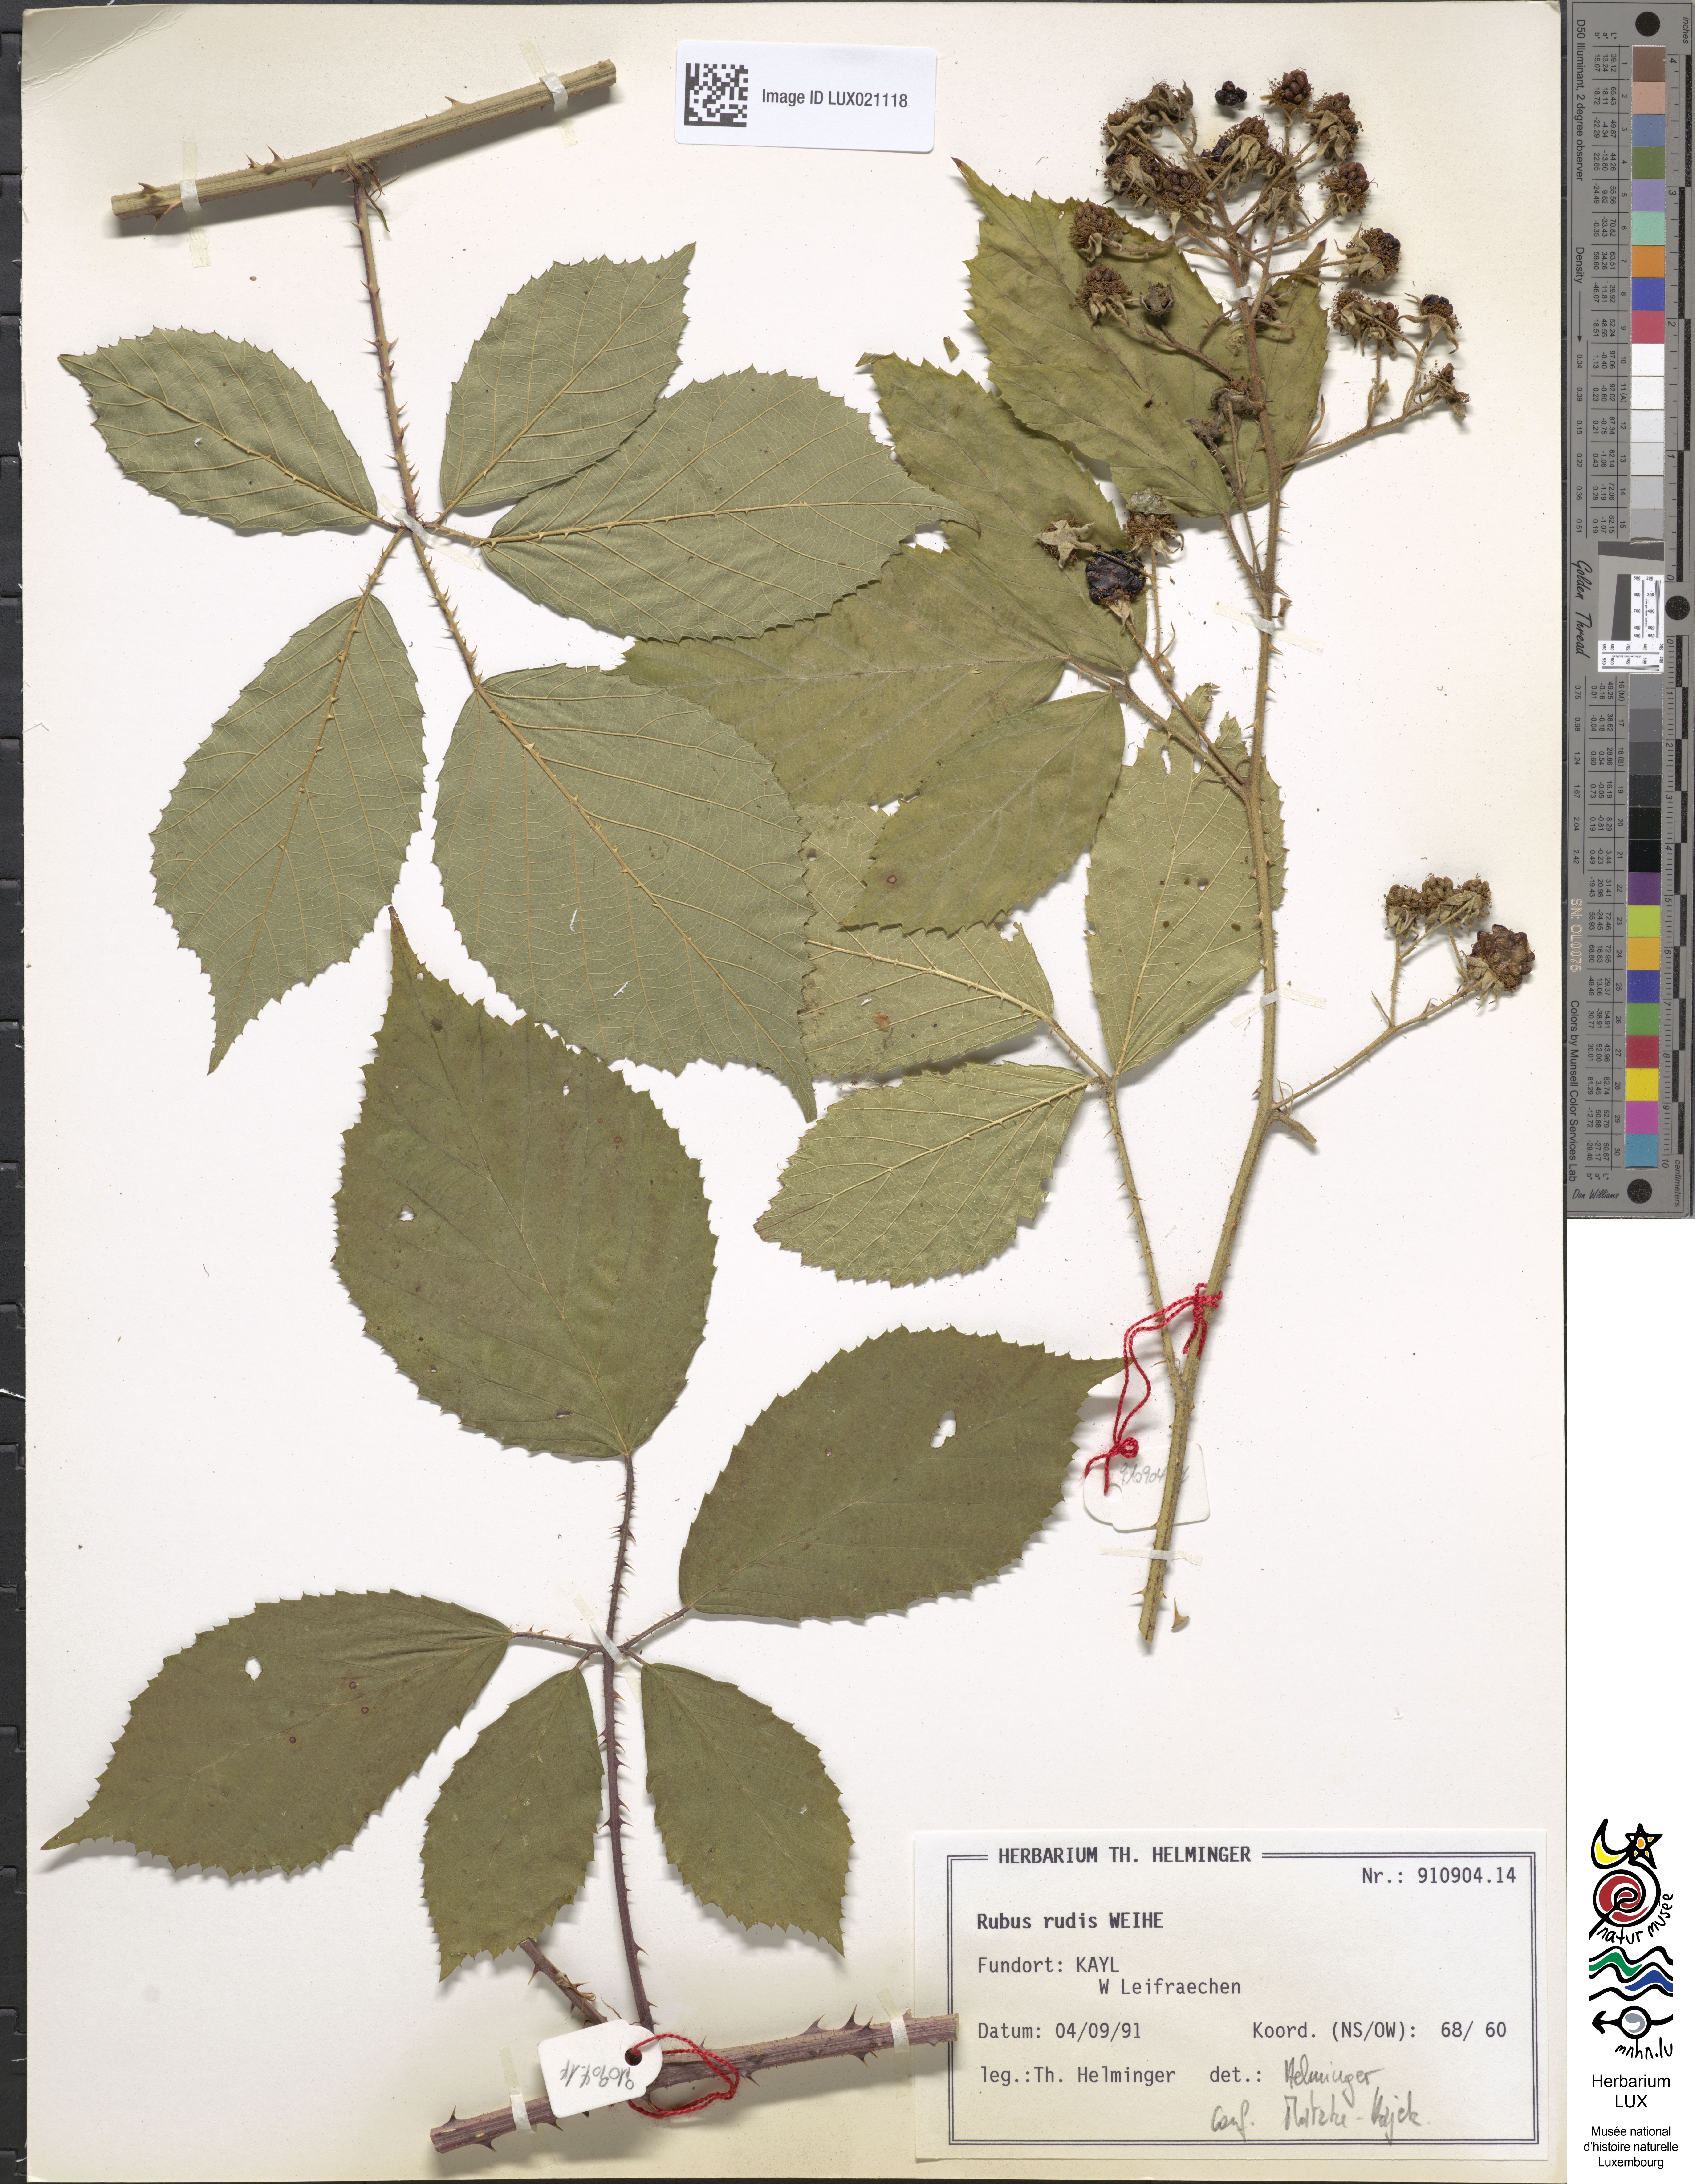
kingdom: Plantae
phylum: Tracheophyta
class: Magnoliopsida
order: Rosales
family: Rosaceae
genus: Rubus
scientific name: Rubus rudis
